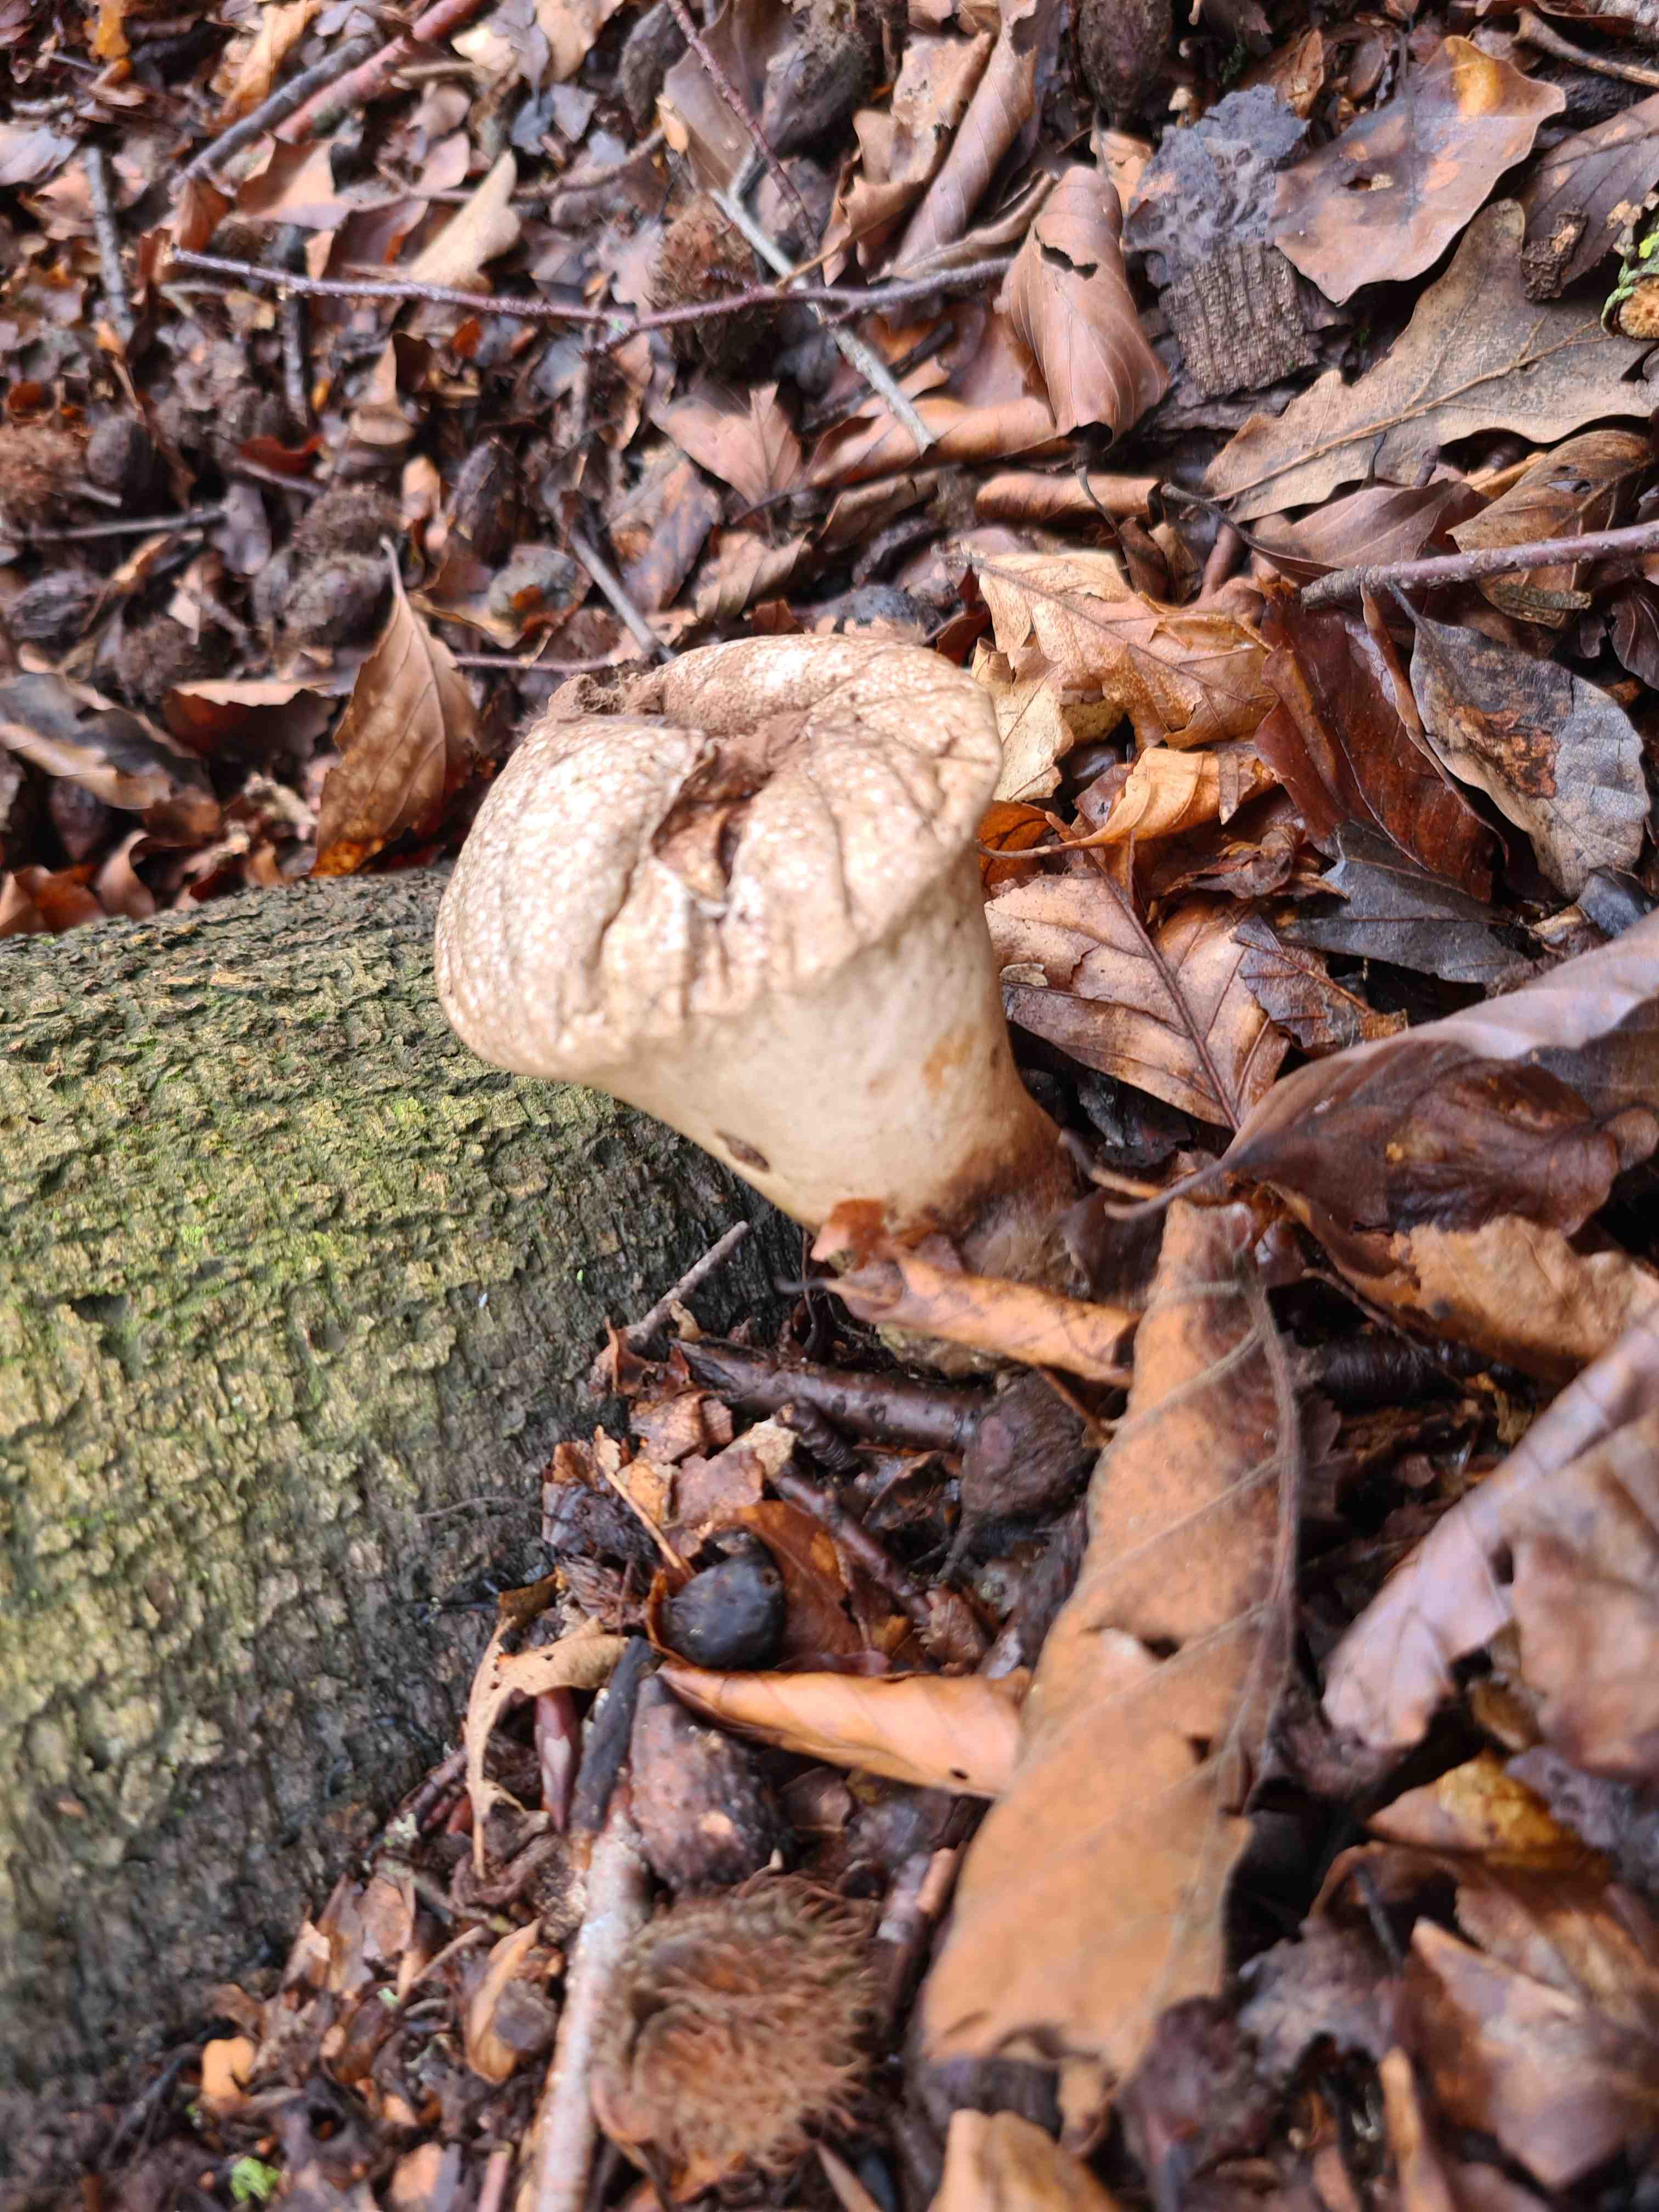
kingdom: Fungi
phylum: Basidiomycota
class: Agaricomycetes
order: Agaricales
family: Lycoperdaceae
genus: Lycoperdon
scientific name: Lycoperdon perlatum
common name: krystal-støvbold
